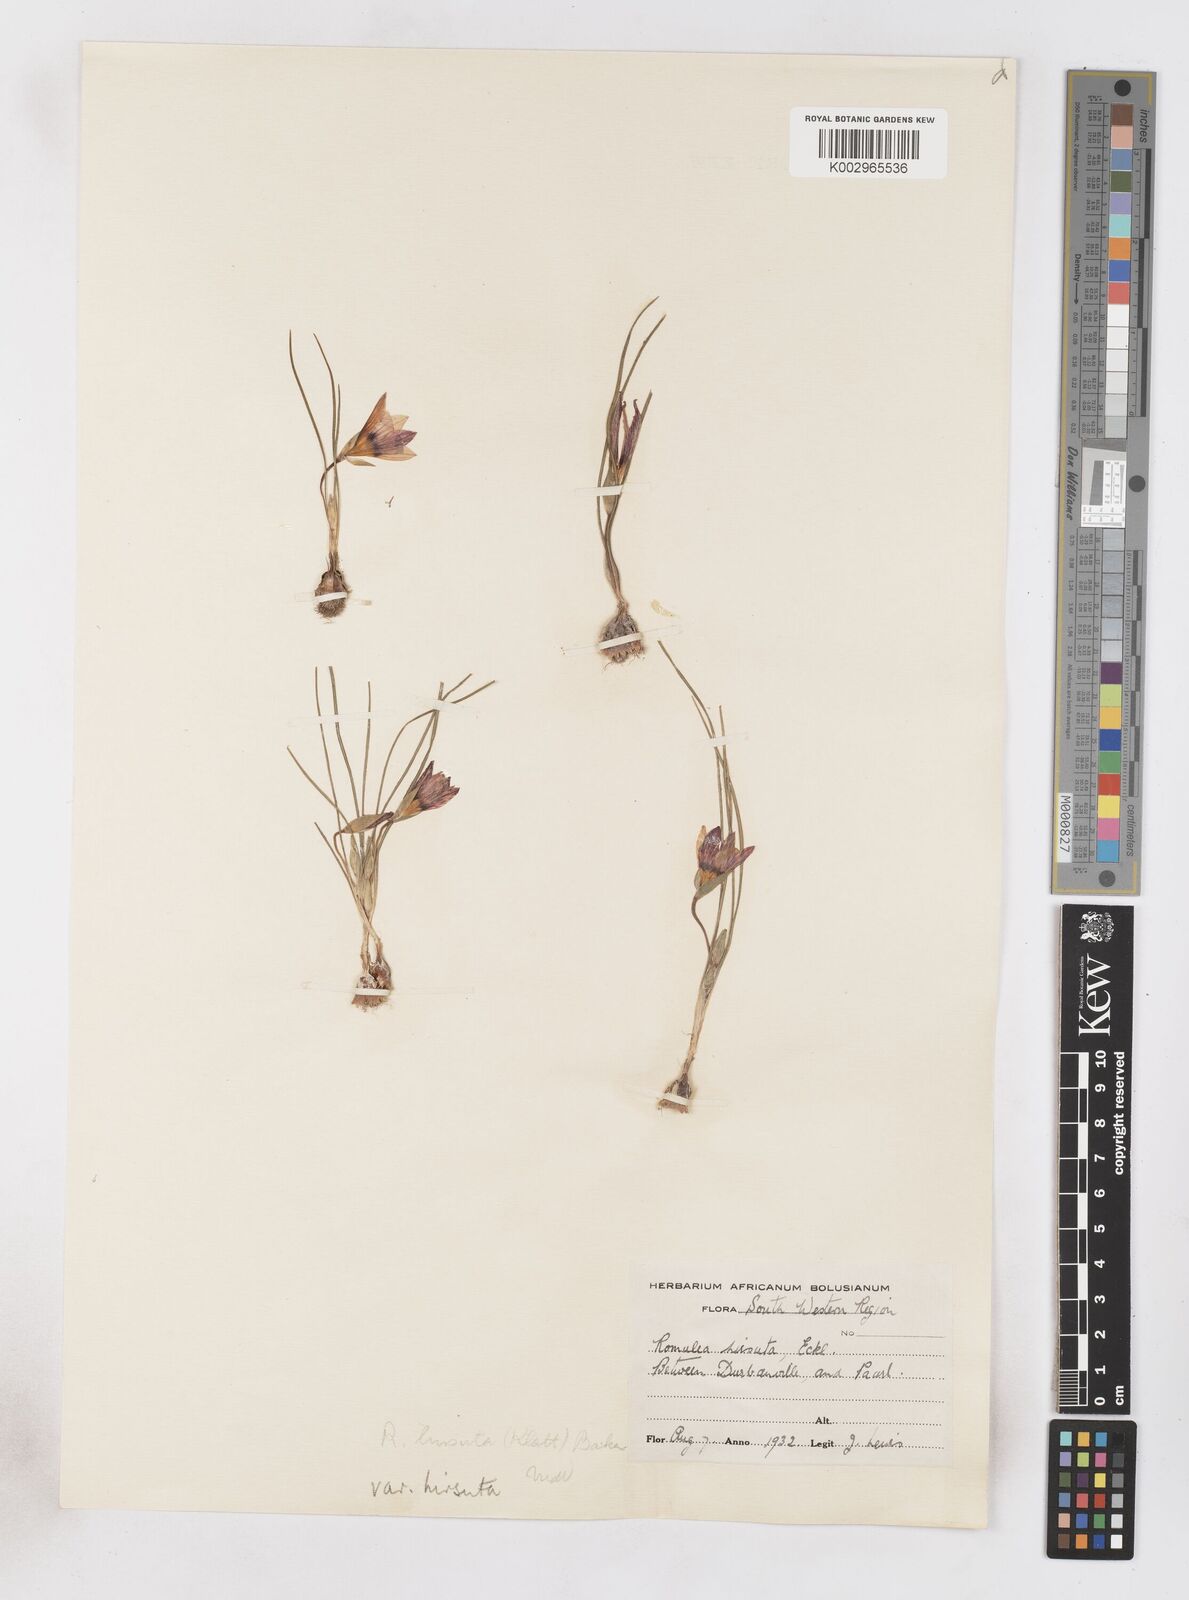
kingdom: Plantae
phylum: Tracheophyta
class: Liliopsida
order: Asparagales
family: Iridaceae
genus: Romulea
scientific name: Romulea hirsuta
